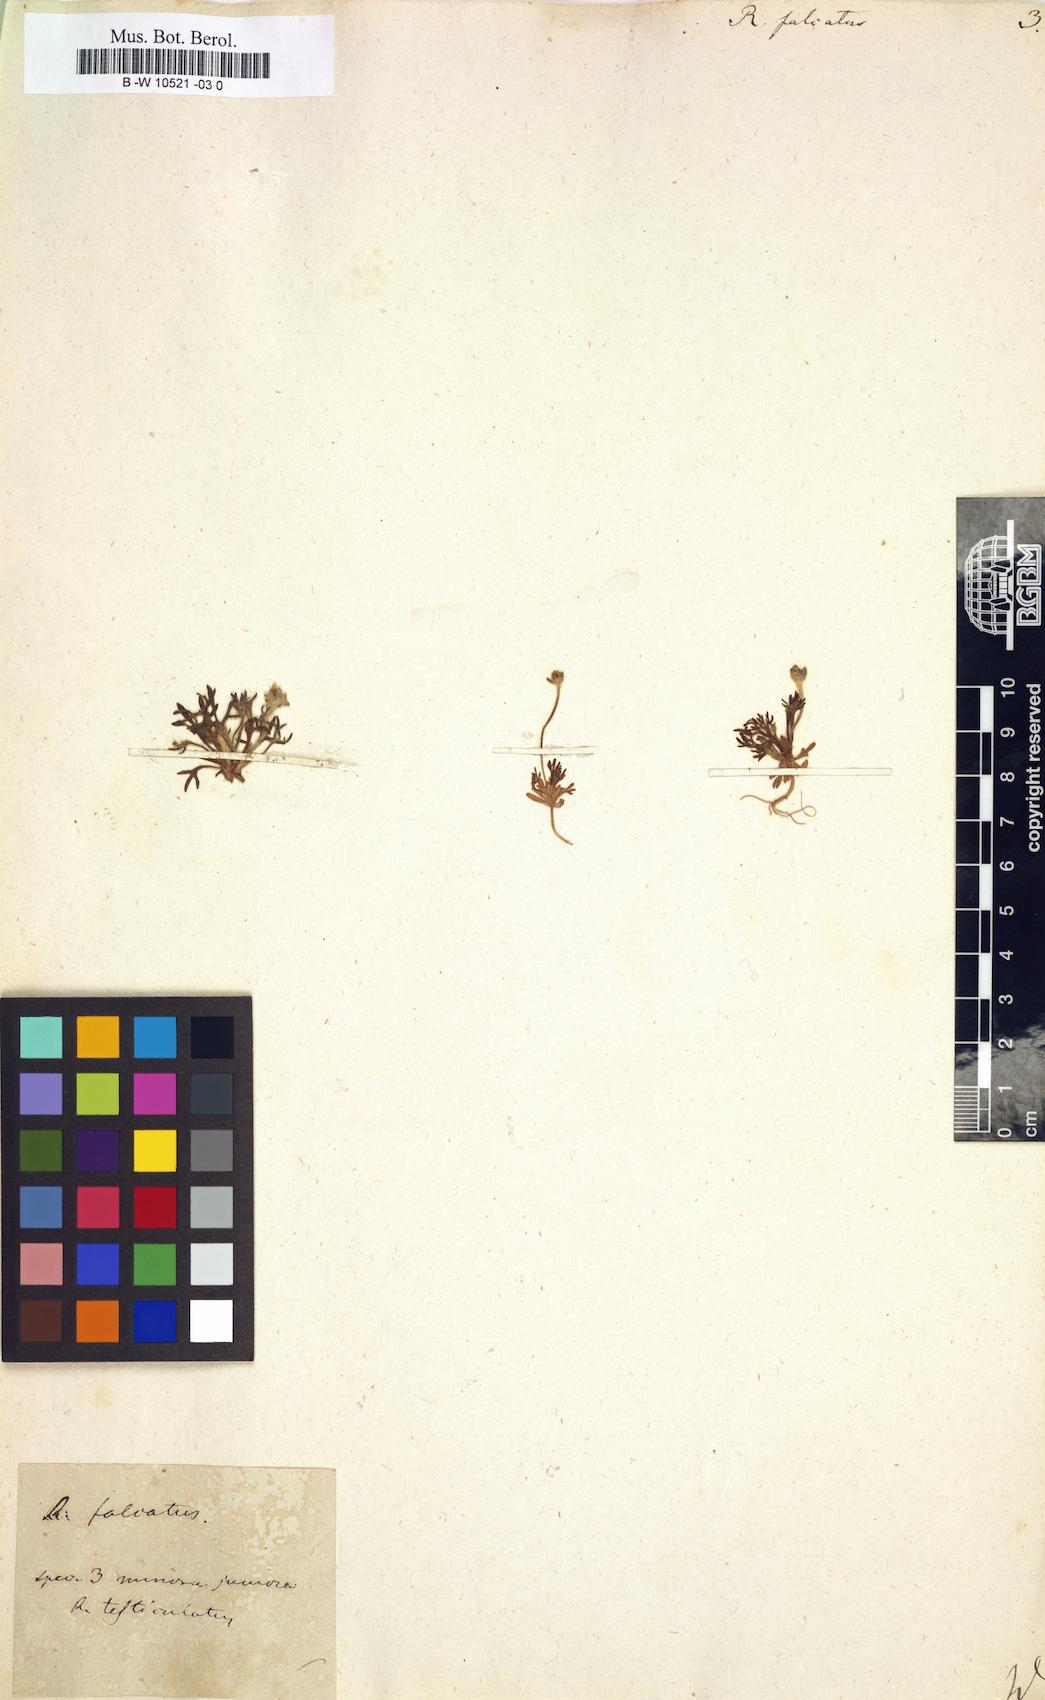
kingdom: Plantae
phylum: Tracheophyta
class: Magnoliopsida
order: Ranunculales
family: Ranunculaceae
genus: Ceratocephala
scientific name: Ceratocephala falcata
